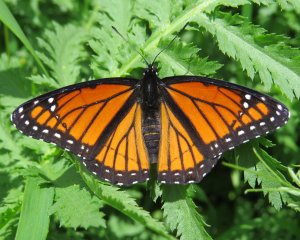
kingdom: Animalia
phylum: Arthropoda
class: Insecta
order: Lepidoptera
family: Nymphalidae
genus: Limenitis
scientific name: Limenitis archippus
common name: Viceroy
